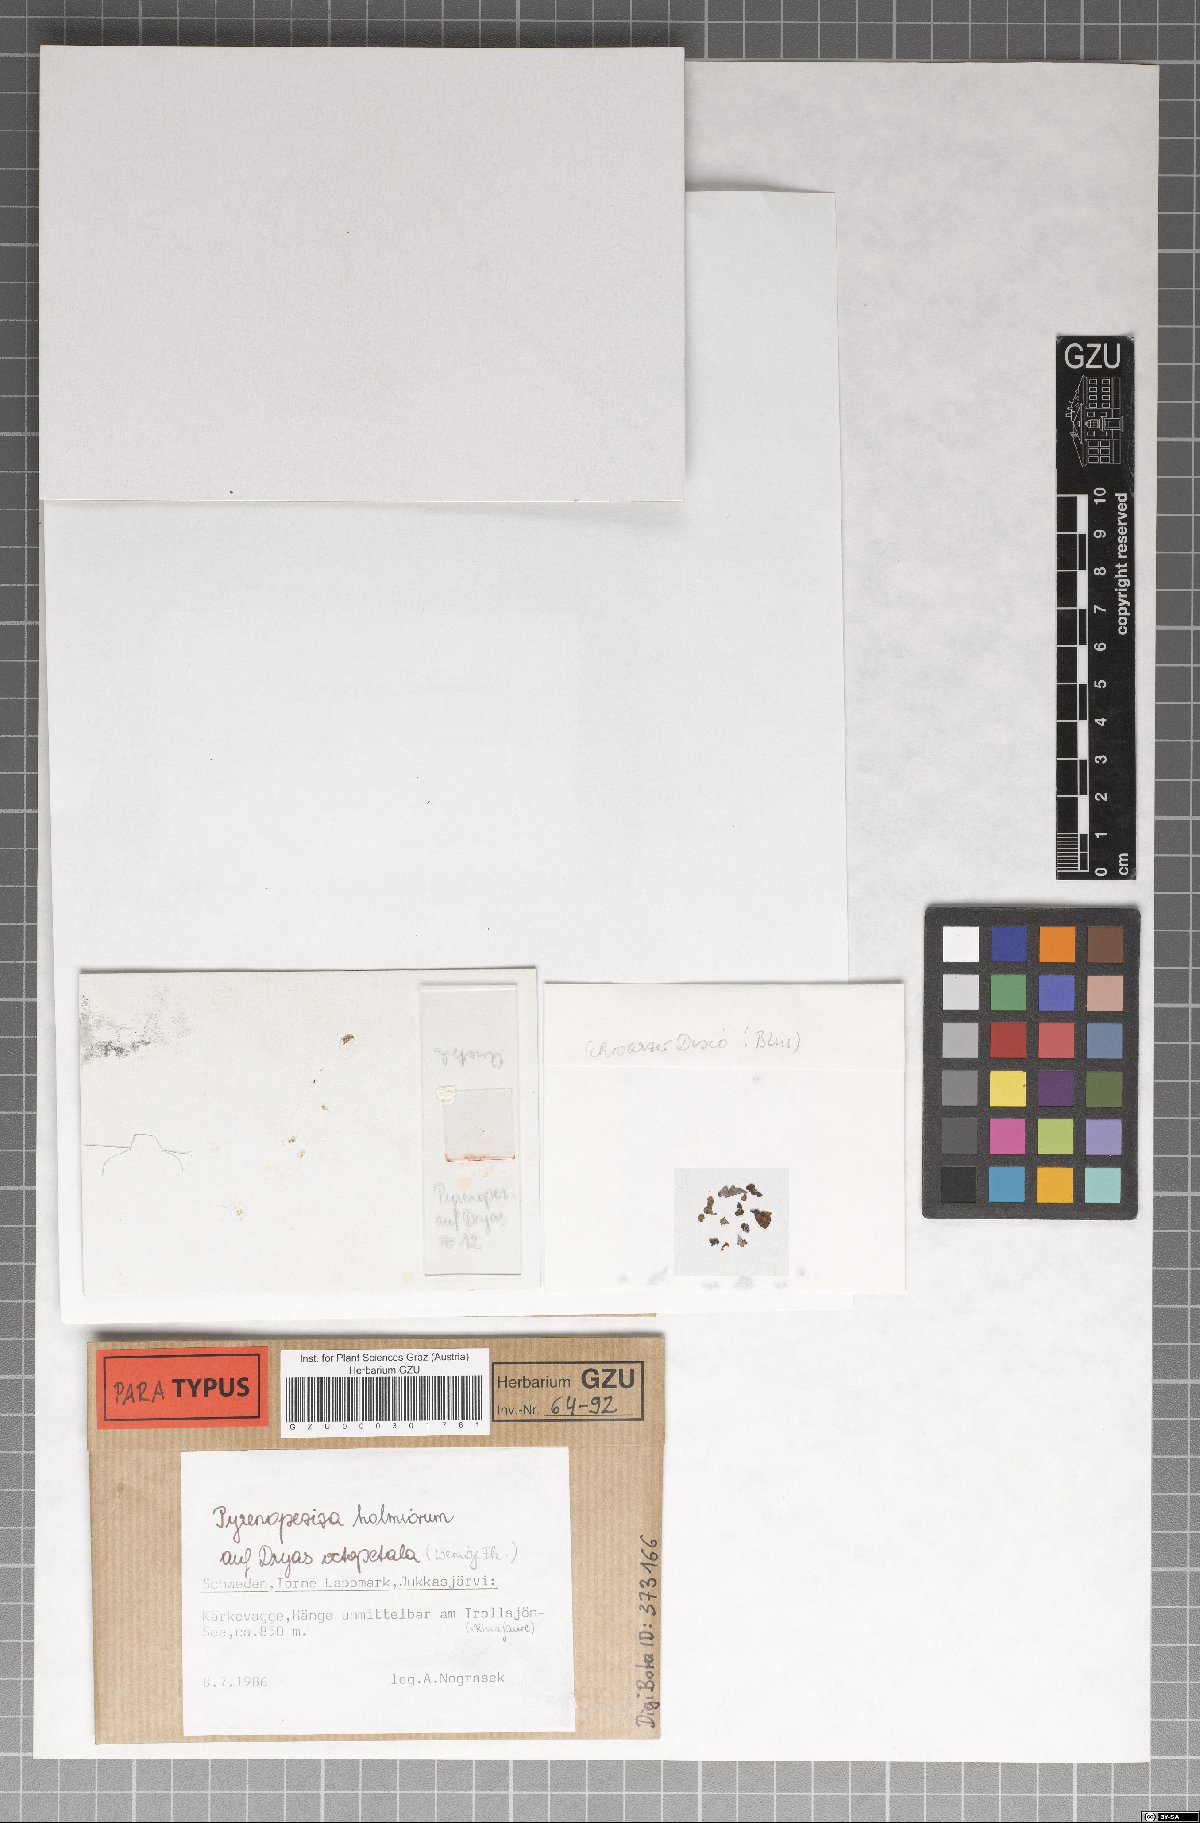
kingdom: Fungi
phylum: Ascomycota
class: Leotiomycetes
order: Helotiales
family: Ploettnerulaceae
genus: Pyrenopeziza
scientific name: Pyrenopeziza holmiorum
